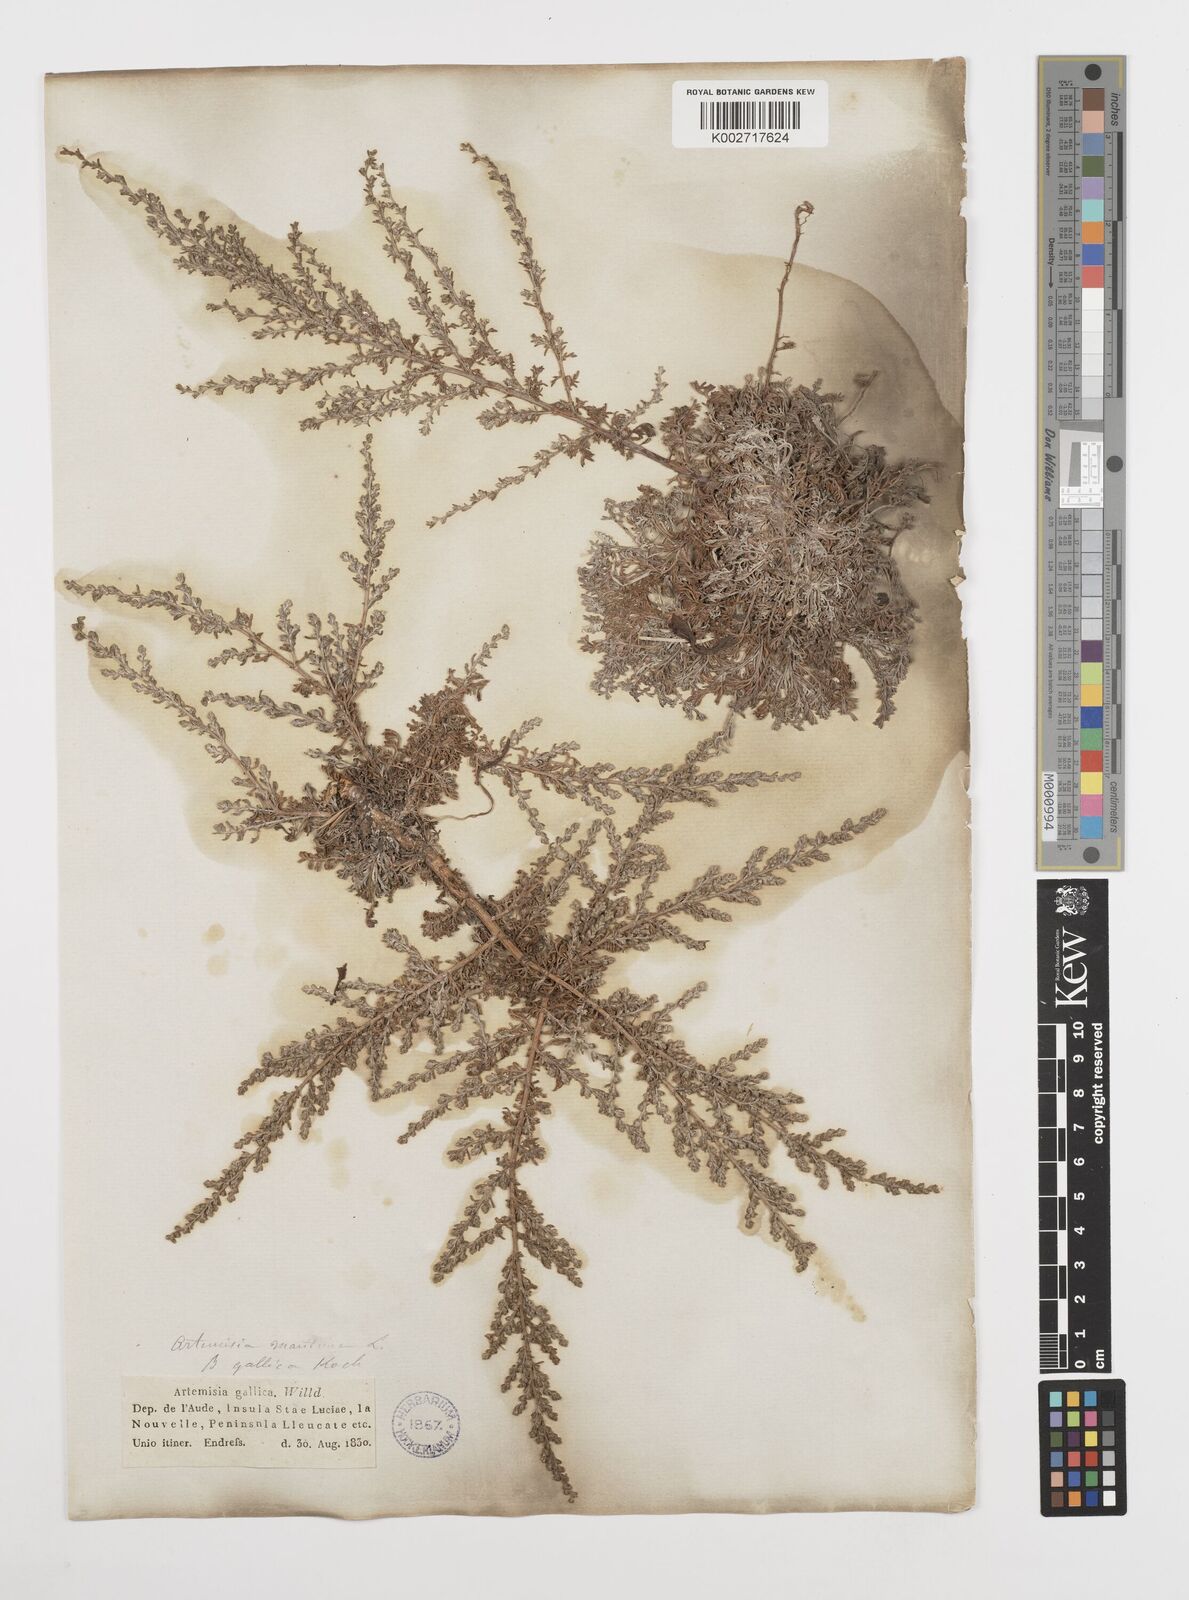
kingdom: Plantae
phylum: Tracheophyta
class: Magnoliopsida
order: Asterales
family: Asteraceae
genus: Artemisia
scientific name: Artemisia campestris
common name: Field wormwood
